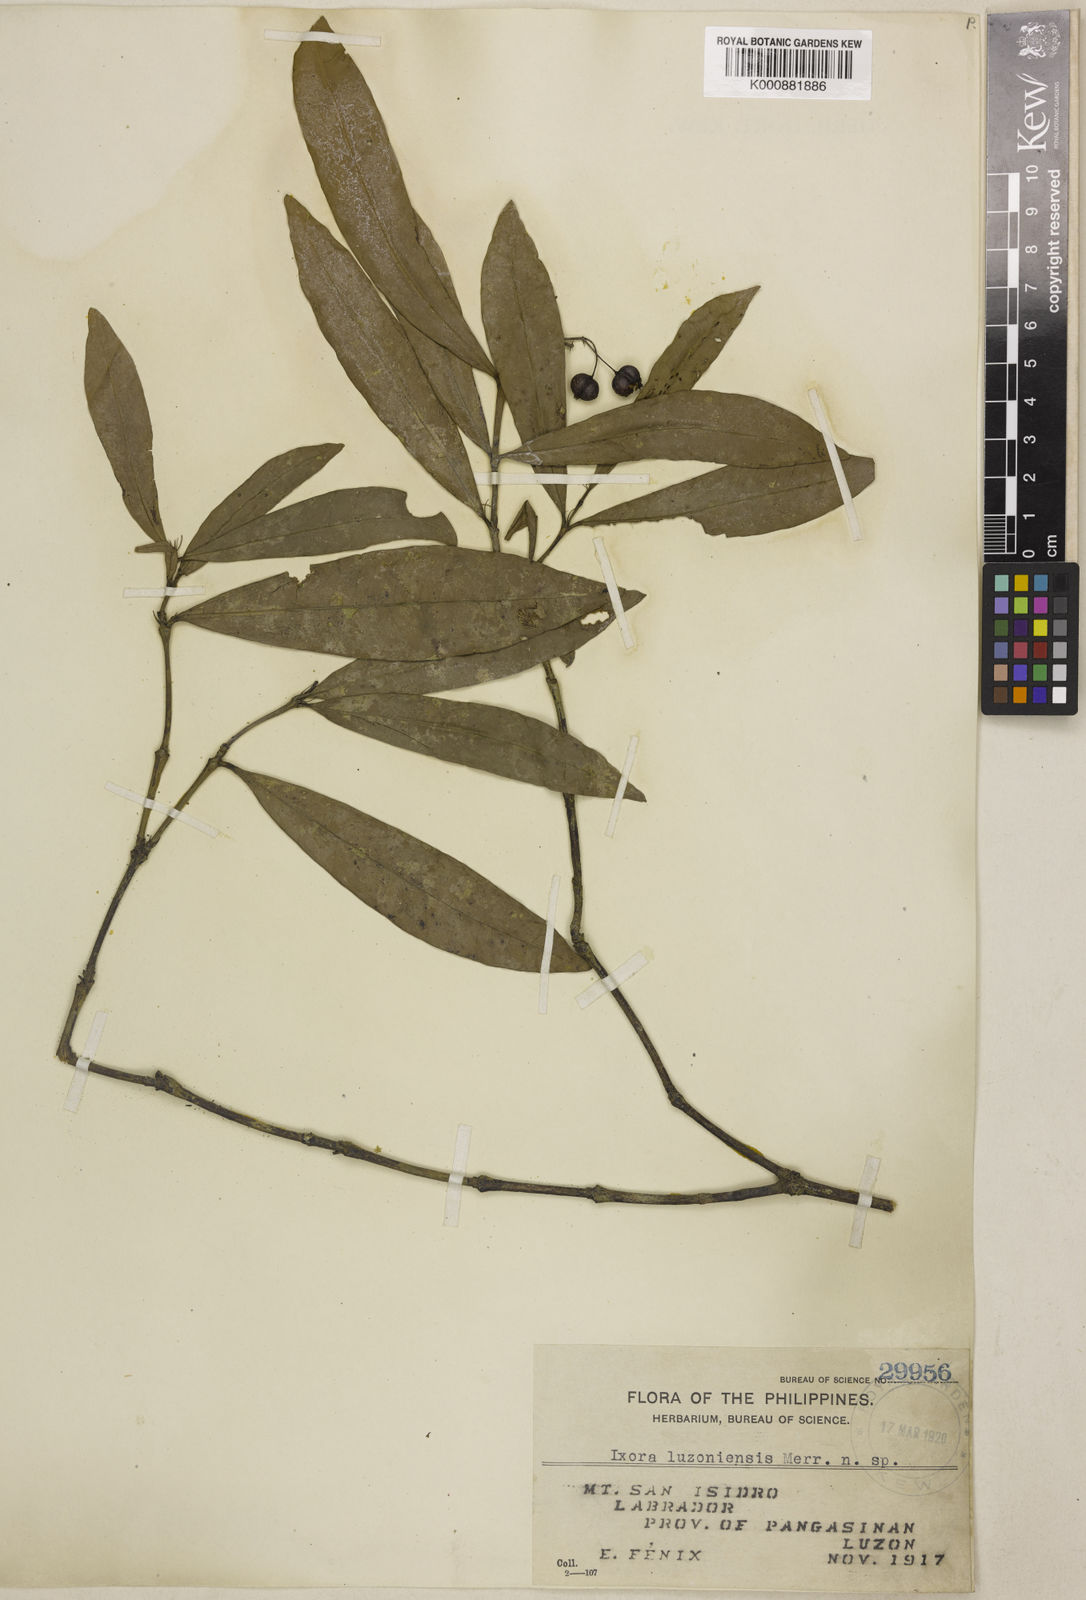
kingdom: Plantae
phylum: Tracheophyta
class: Magnoliopsida
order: Gentianales
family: Rubiaceae
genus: Ixora
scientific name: Ixora luzoniensis
